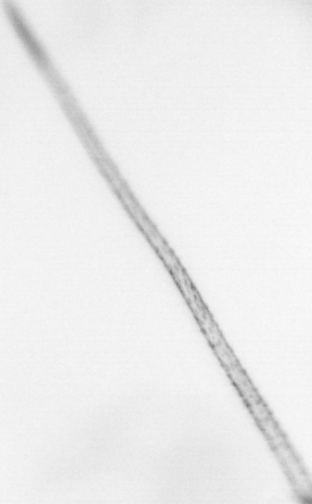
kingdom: Animalia
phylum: Arthropoda
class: Copepoda
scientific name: Copepoda
